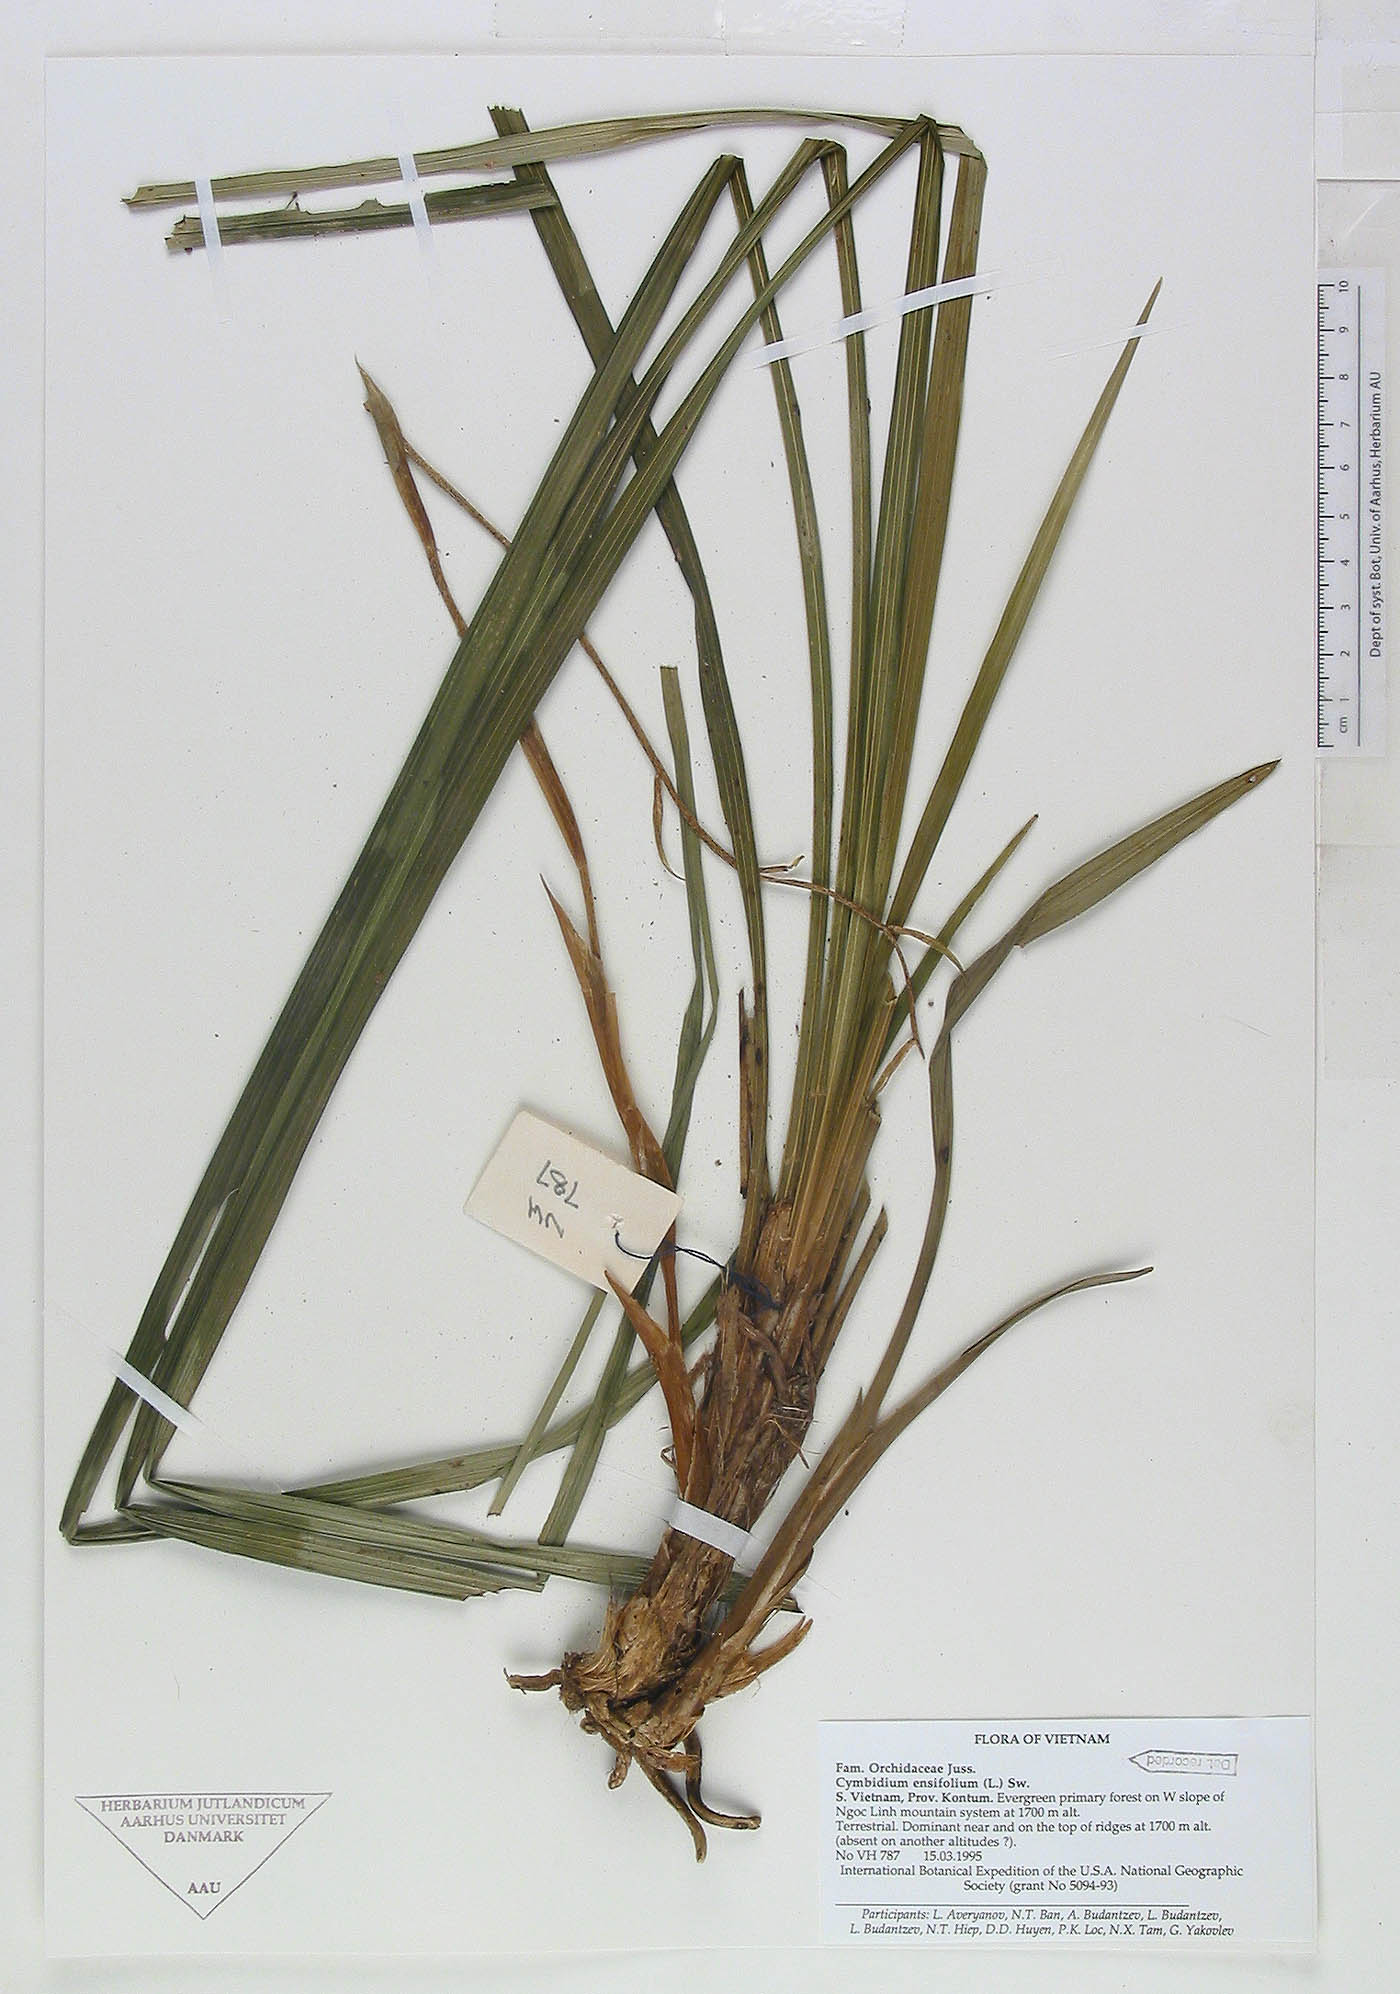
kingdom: Plantae
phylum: Tracheophyta
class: Liliopsida
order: Asparagales
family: Orchidaceae
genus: Cymbidium
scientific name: Cymbidium ensifolium
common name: Fukien-orchid
